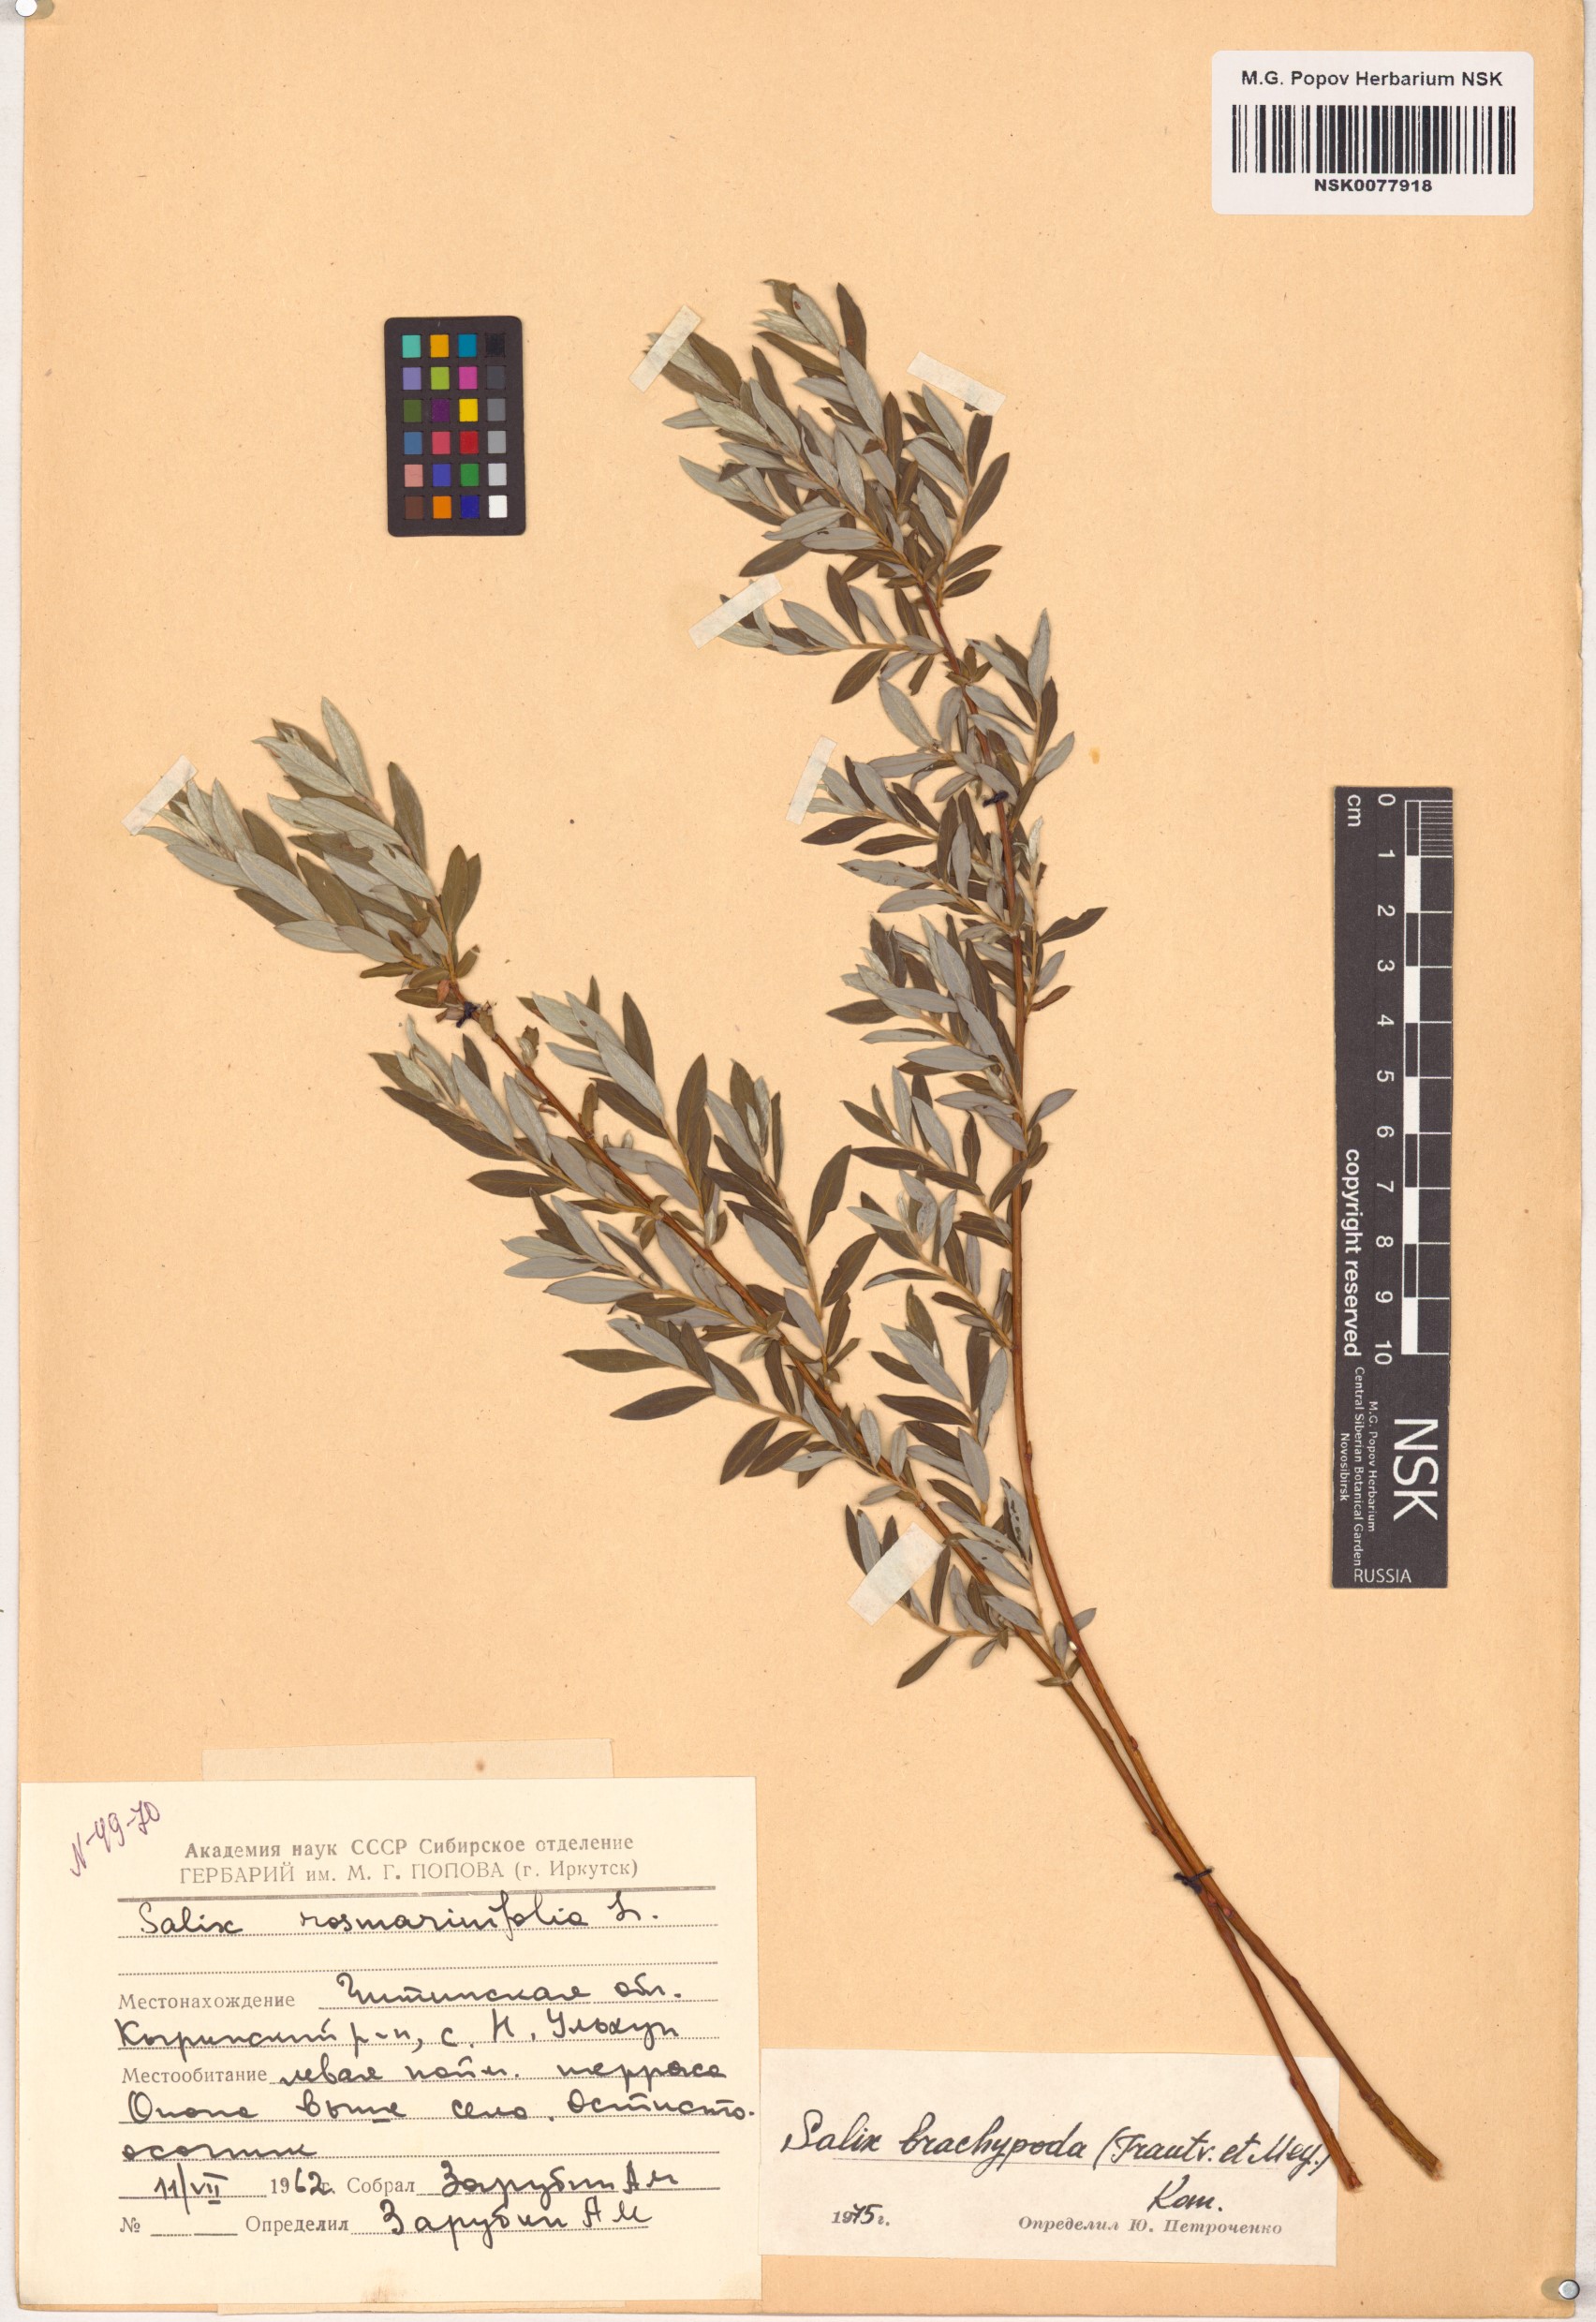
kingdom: Plantae
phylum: Tracheophyta
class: Magnoliopsida
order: Malpighiales
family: Salicaceae
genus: Salix
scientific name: Salix brachypoda
